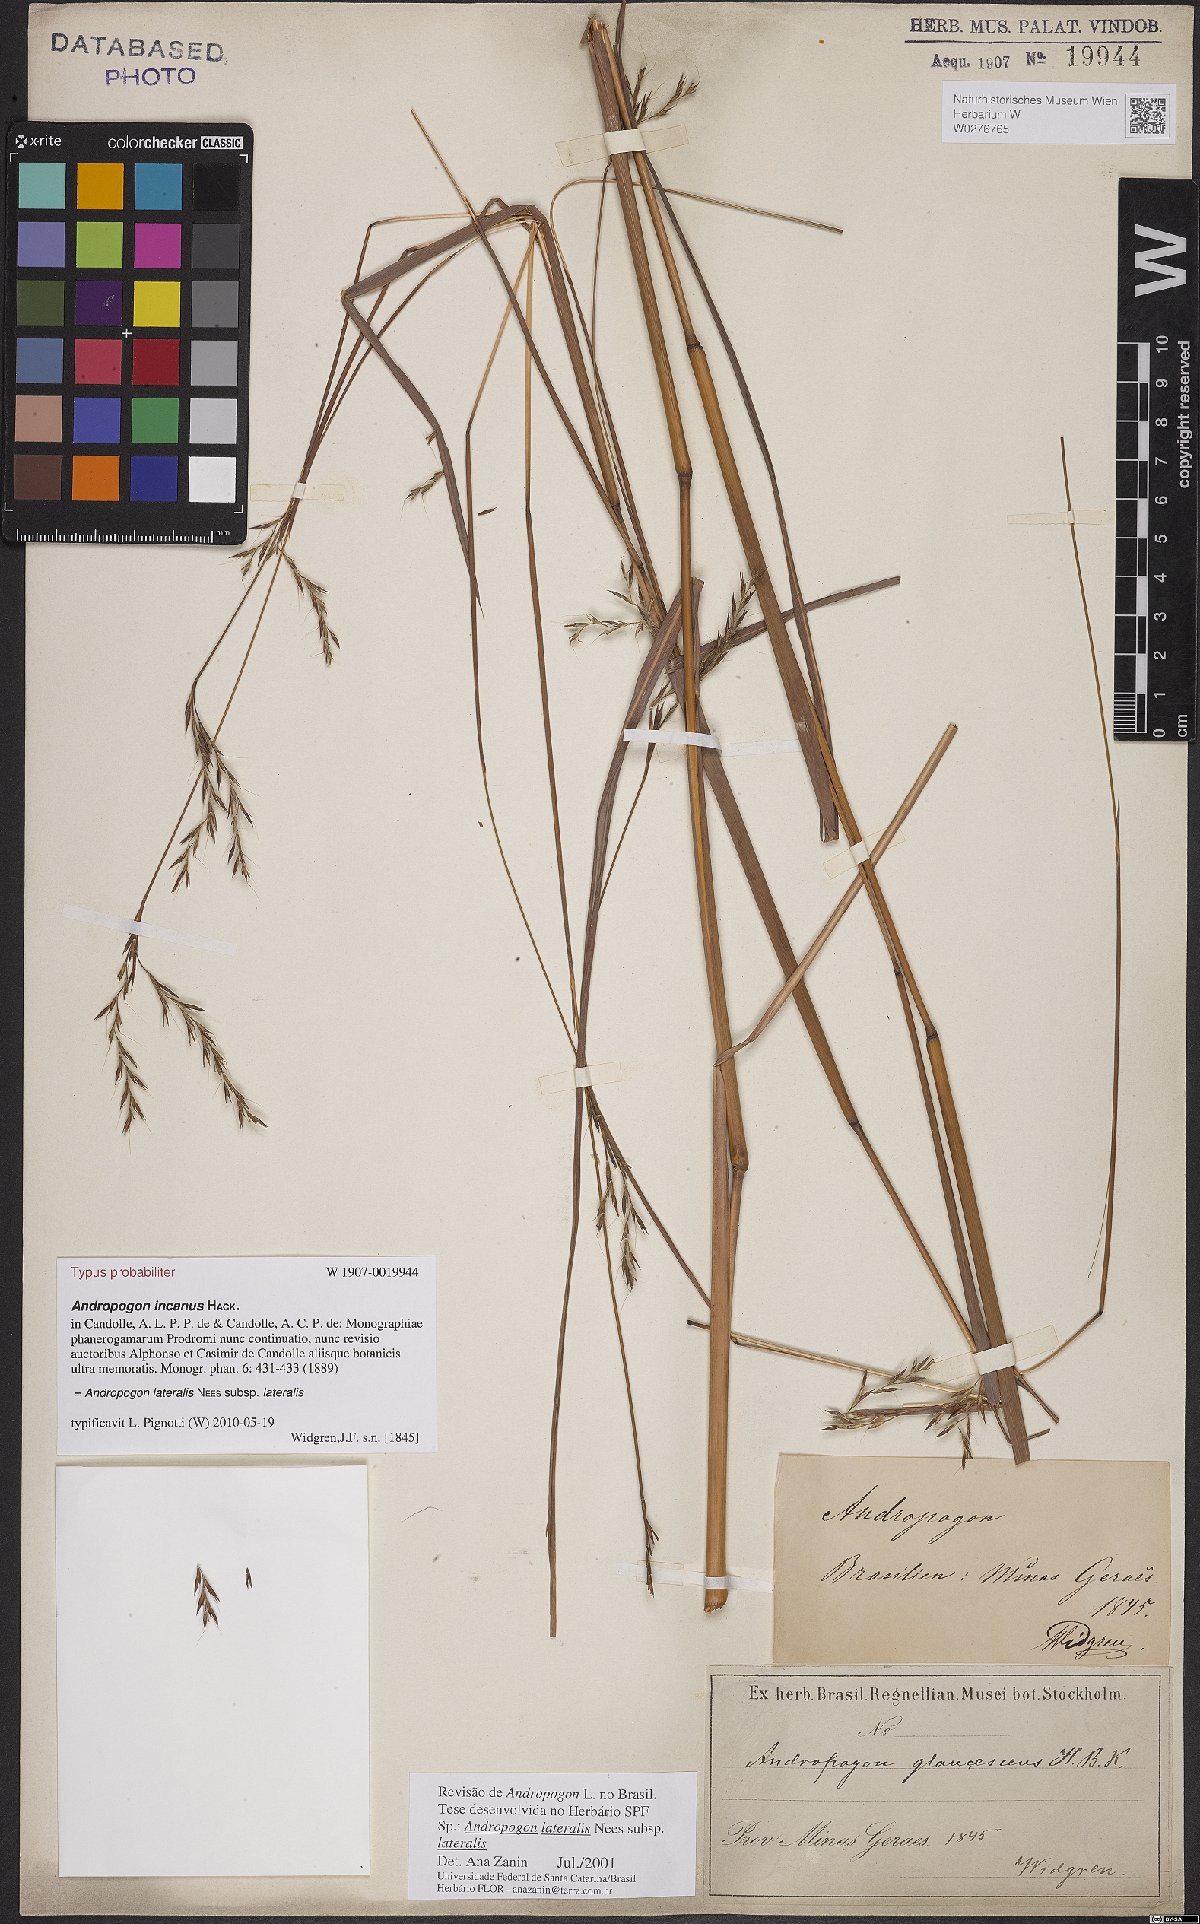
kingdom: Plantae
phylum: Tracheophyta
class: Liliopsida
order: Poales
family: Poaceae
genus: Andropogon
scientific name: Andropogon lateralis
